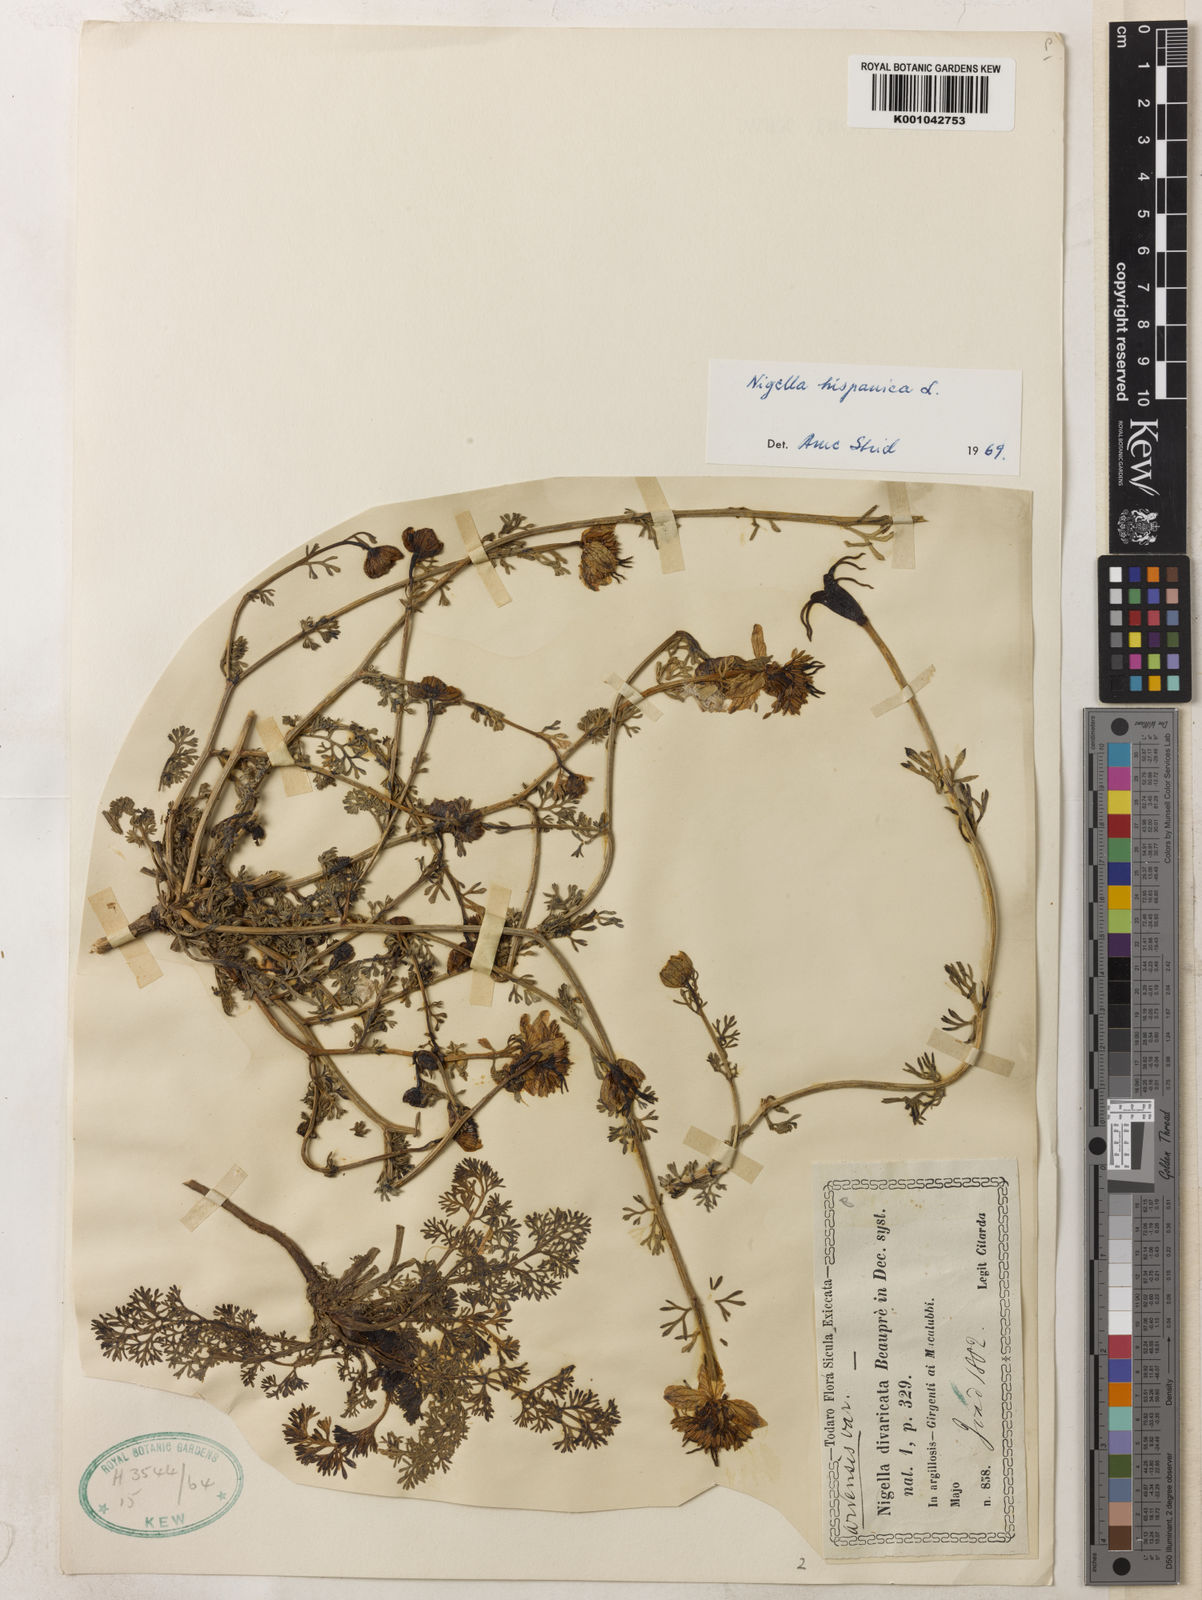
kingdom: Plantae
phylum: Tracheophyta
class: Magnoliopsida
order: Ranunculales
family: Ranunculaceae
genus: Nigella
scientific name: Nigella hispanica
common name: Fennel-flower
